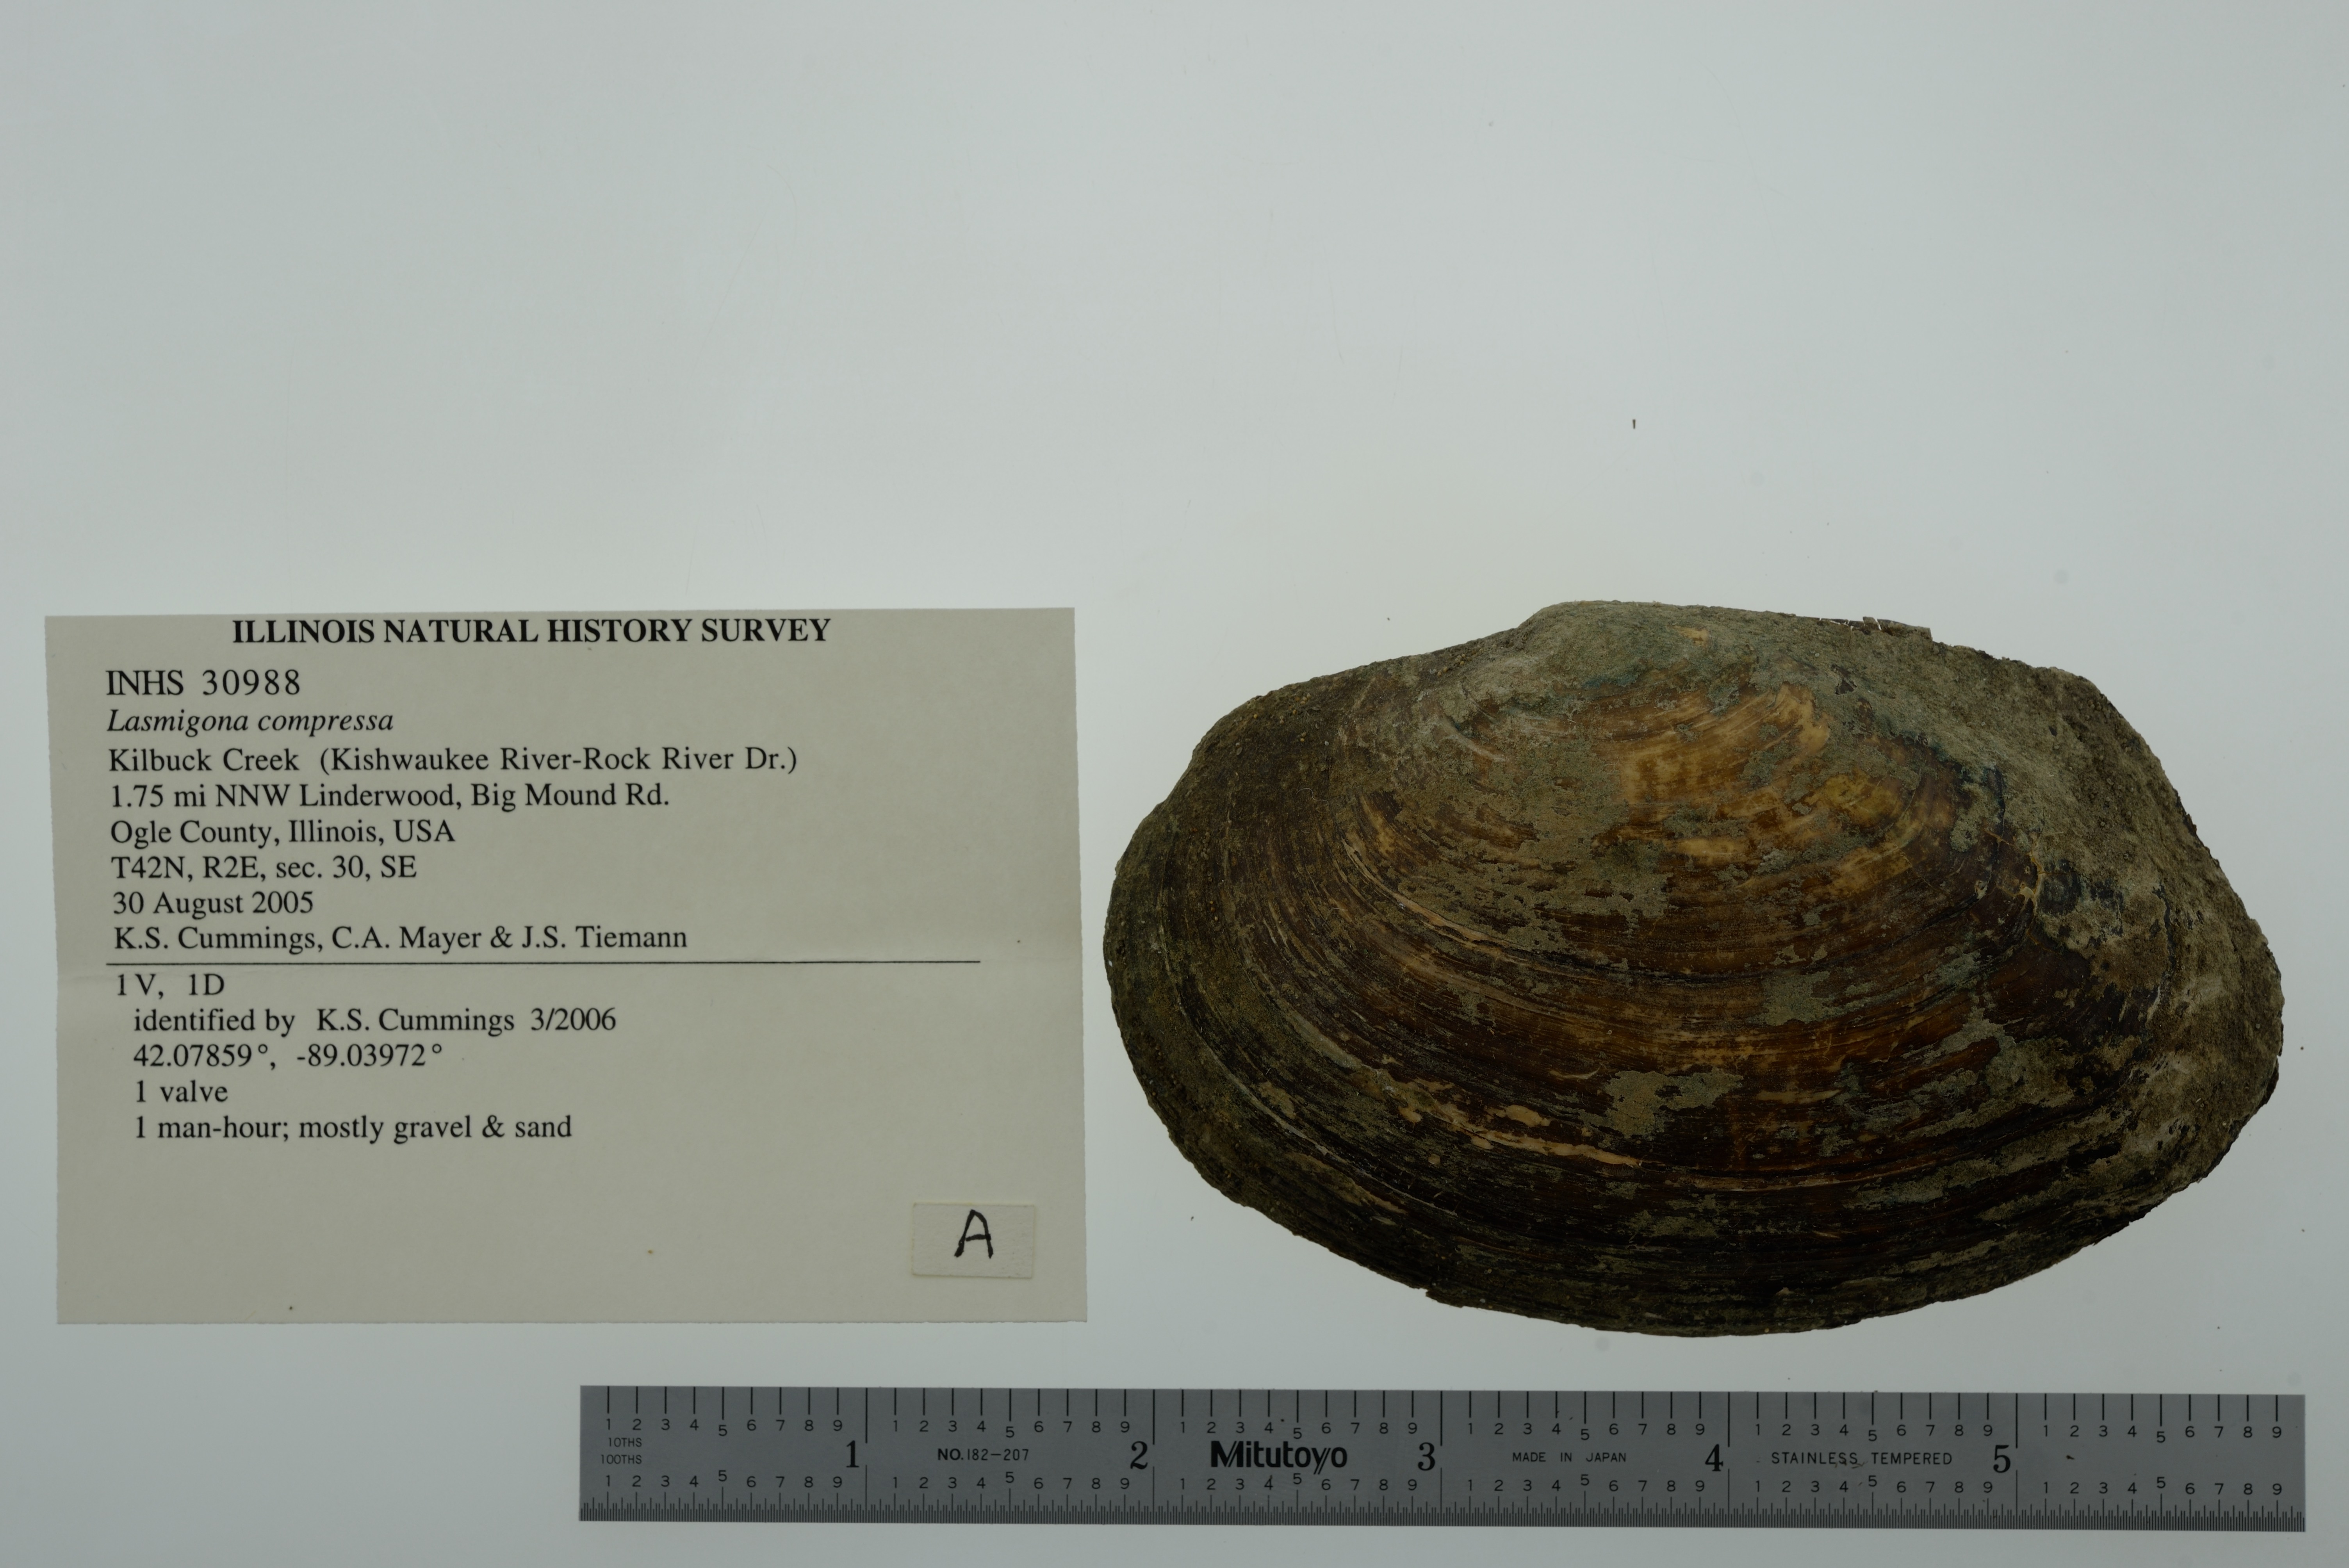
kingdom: Animalia
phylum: Mollusca
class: Bivalvia
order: Unionida
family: Unionidae
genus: Lasmigona
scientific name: Lasmigona compressa
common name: Creek heelsplitter
